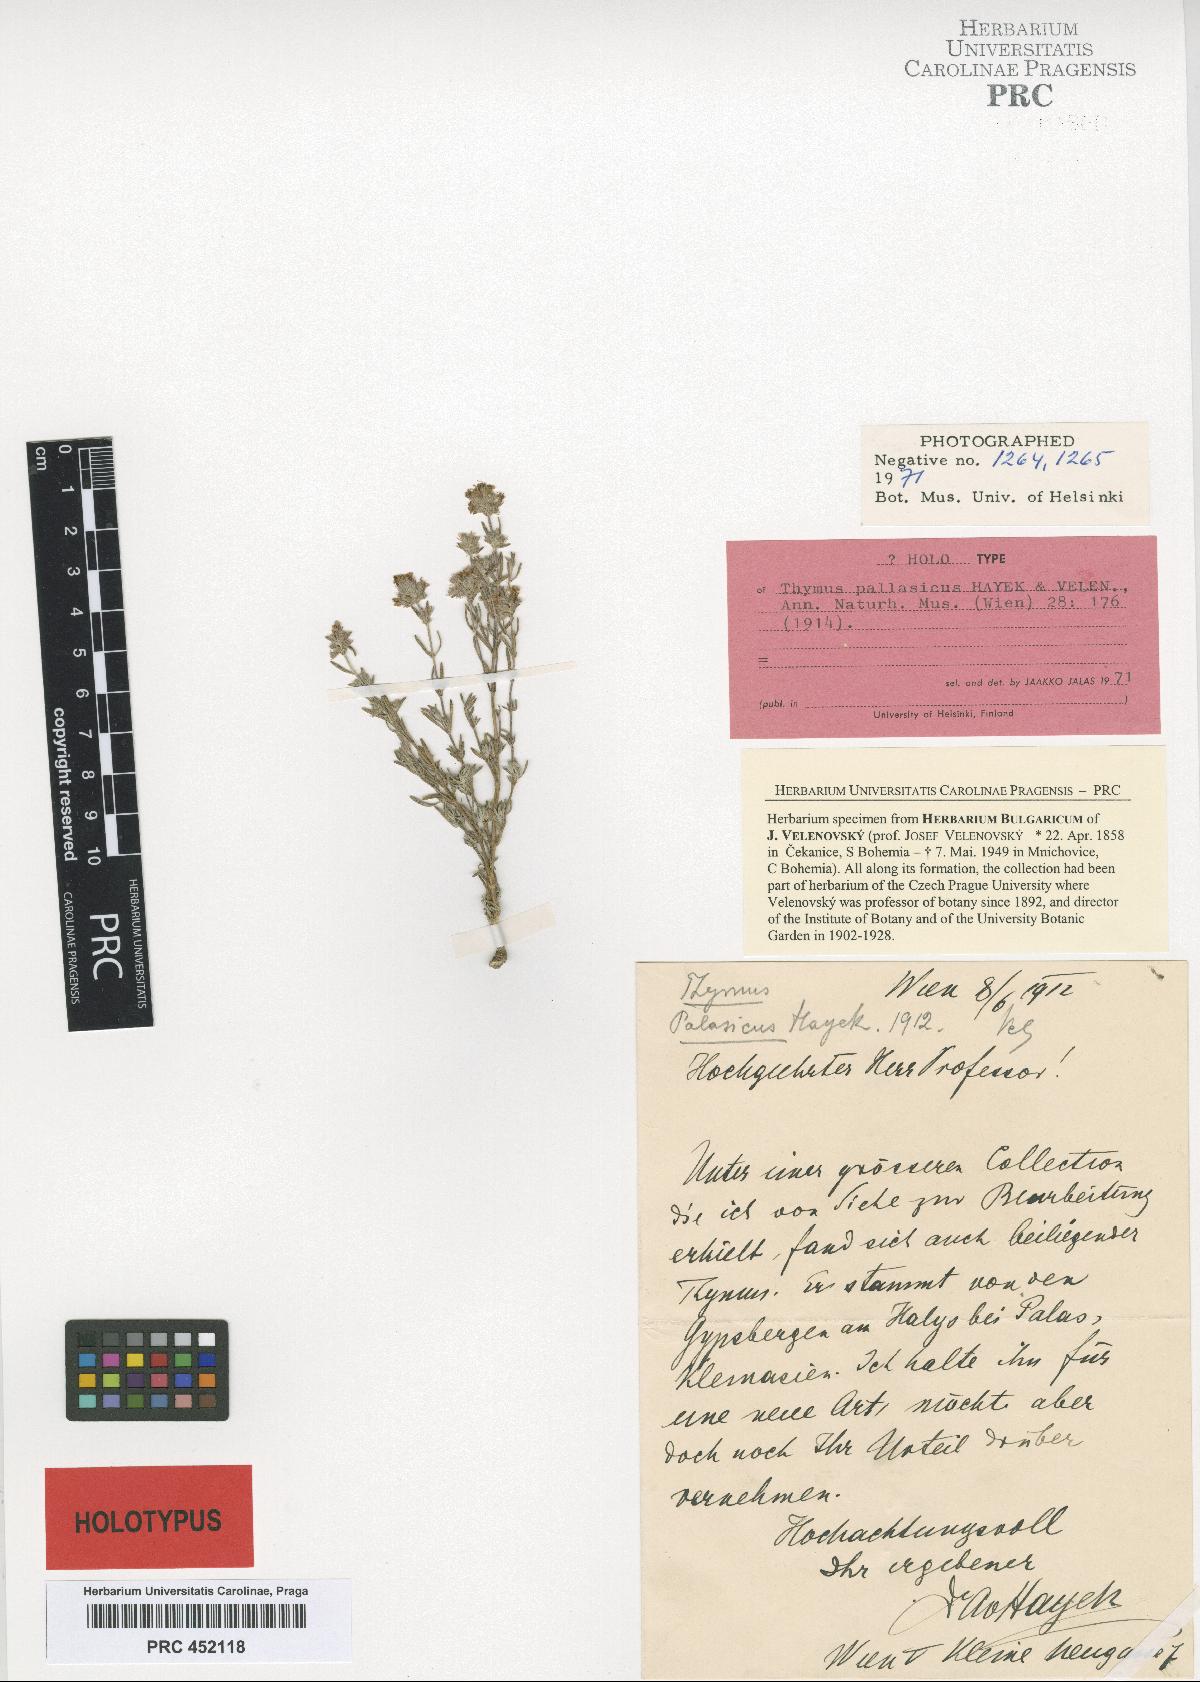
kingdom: Plantae
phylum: Tracheophyta
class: Magnoliopsida
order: Lamiales
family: Lamiaceae
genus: Thymus
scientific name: Thymus pectinatus
